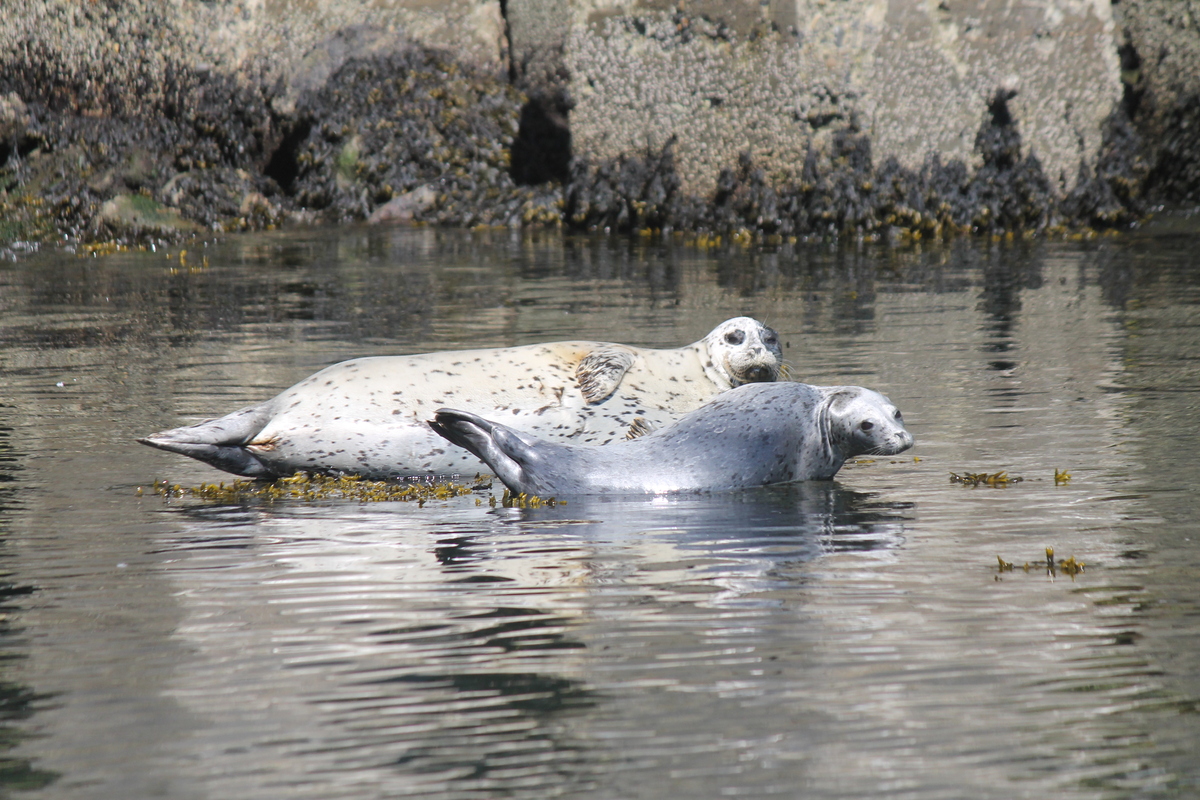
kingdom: Animalia
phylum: Chordata
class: Mammalia
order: Carnivora
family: Phocidae
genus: Phoca
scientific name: Phoca vitulina
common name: Harbor seal
